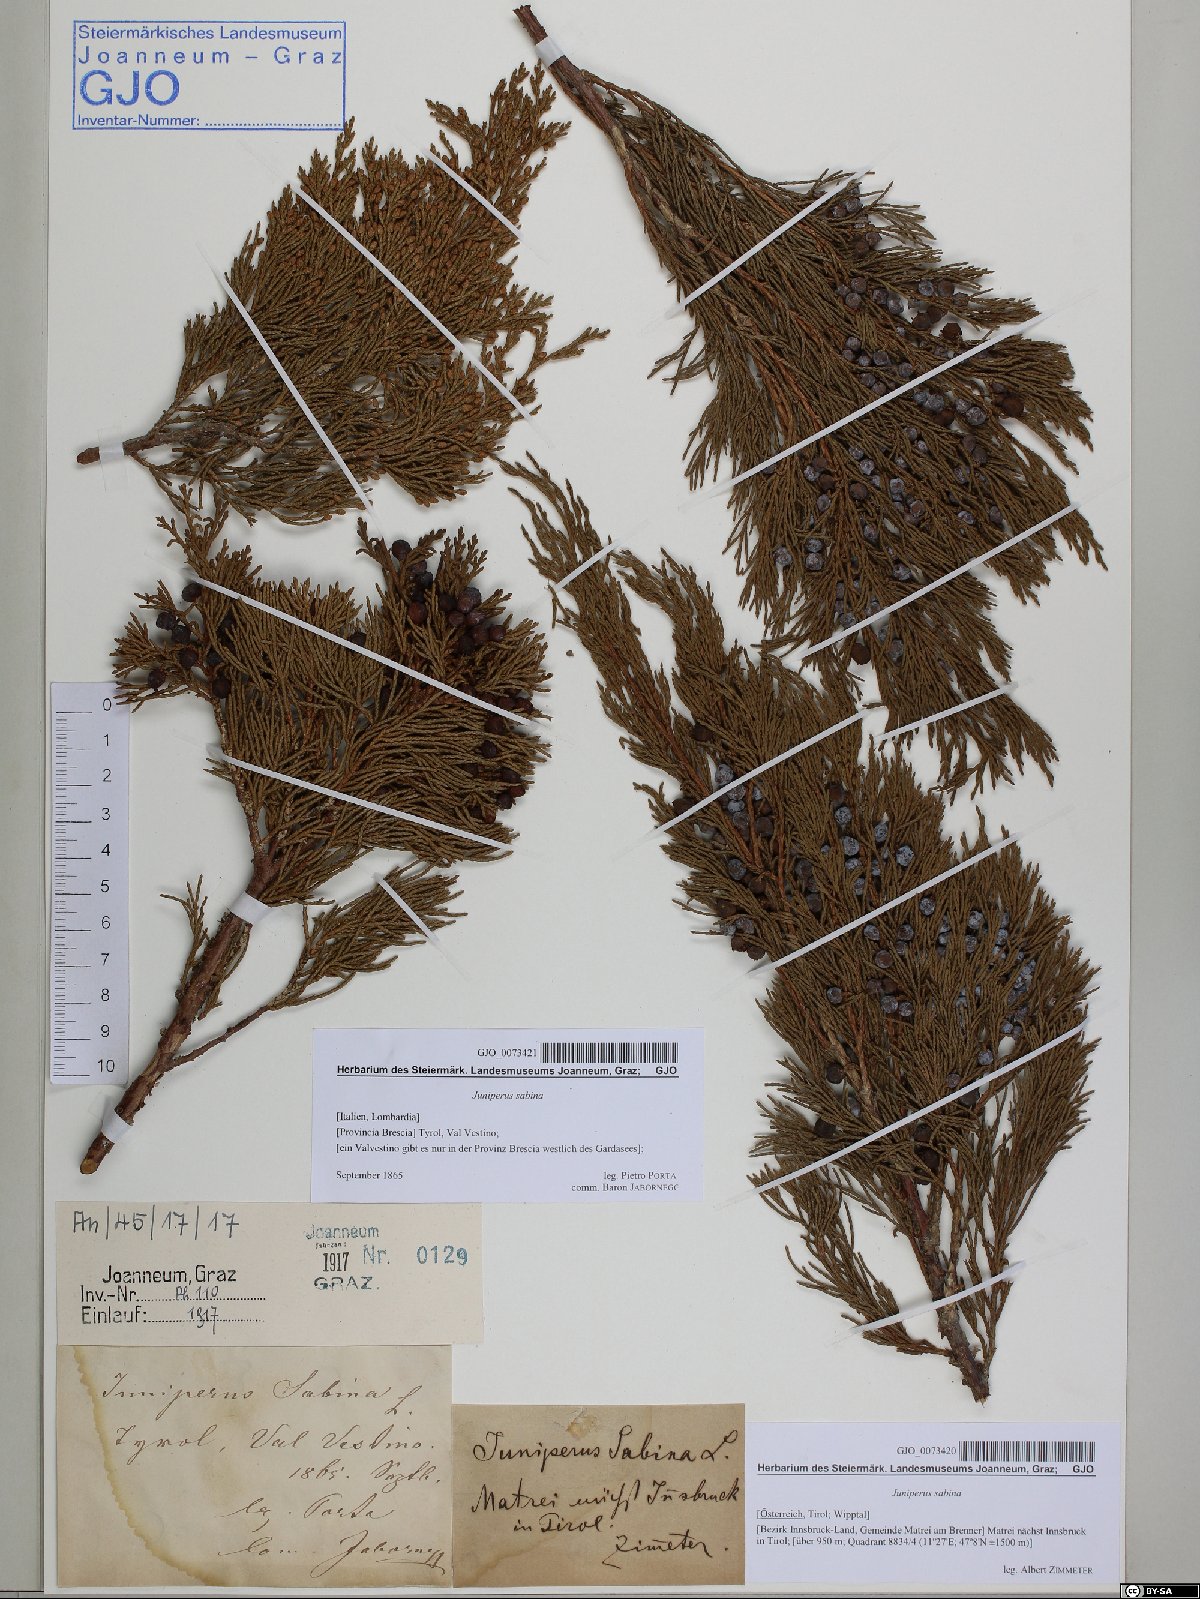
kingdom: Plantae
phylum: Tracheophyta
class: Pinopsida
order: Pinales
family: Cupressaceae
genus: Juniperus
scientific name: Juniperus sabina
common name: Savin
